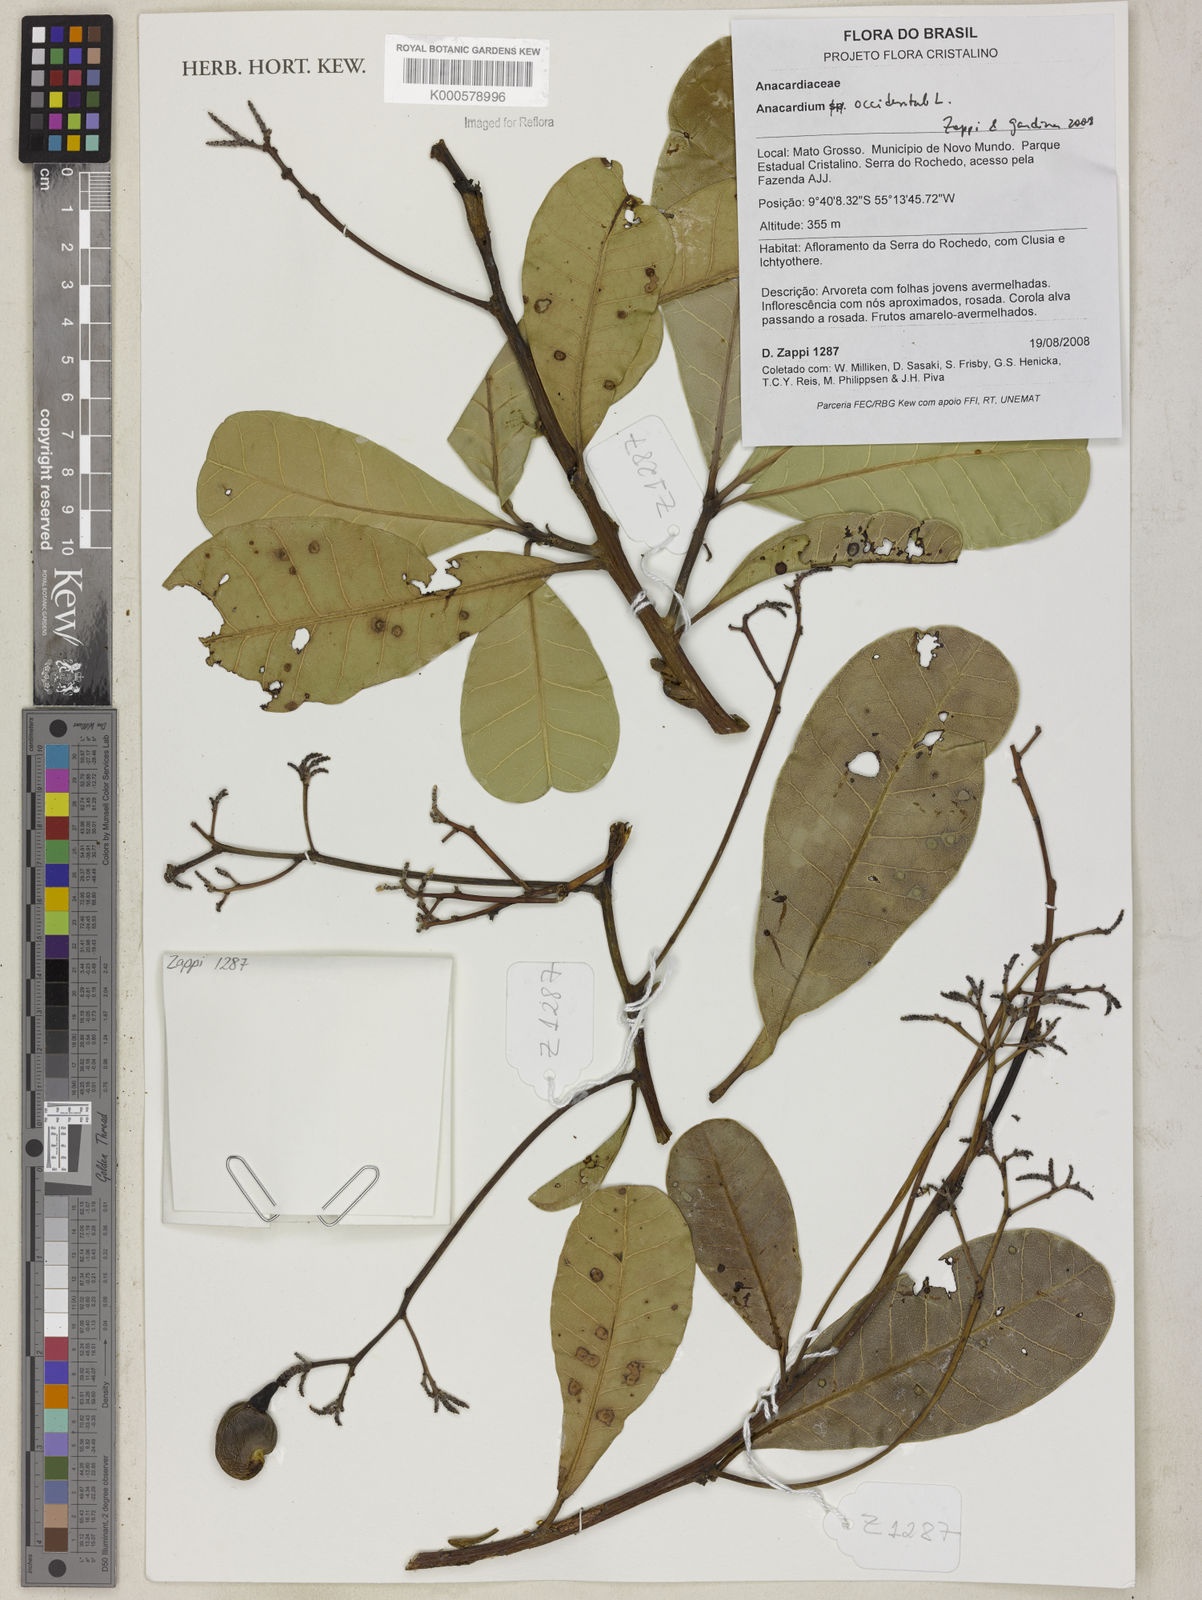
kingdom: Plantae
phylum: Tracheophyta
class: Magnoliopsida
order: Sapindales
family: Anacardiaceae
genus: Anacardium
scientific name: Anacardium occidentale
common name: Cashew
